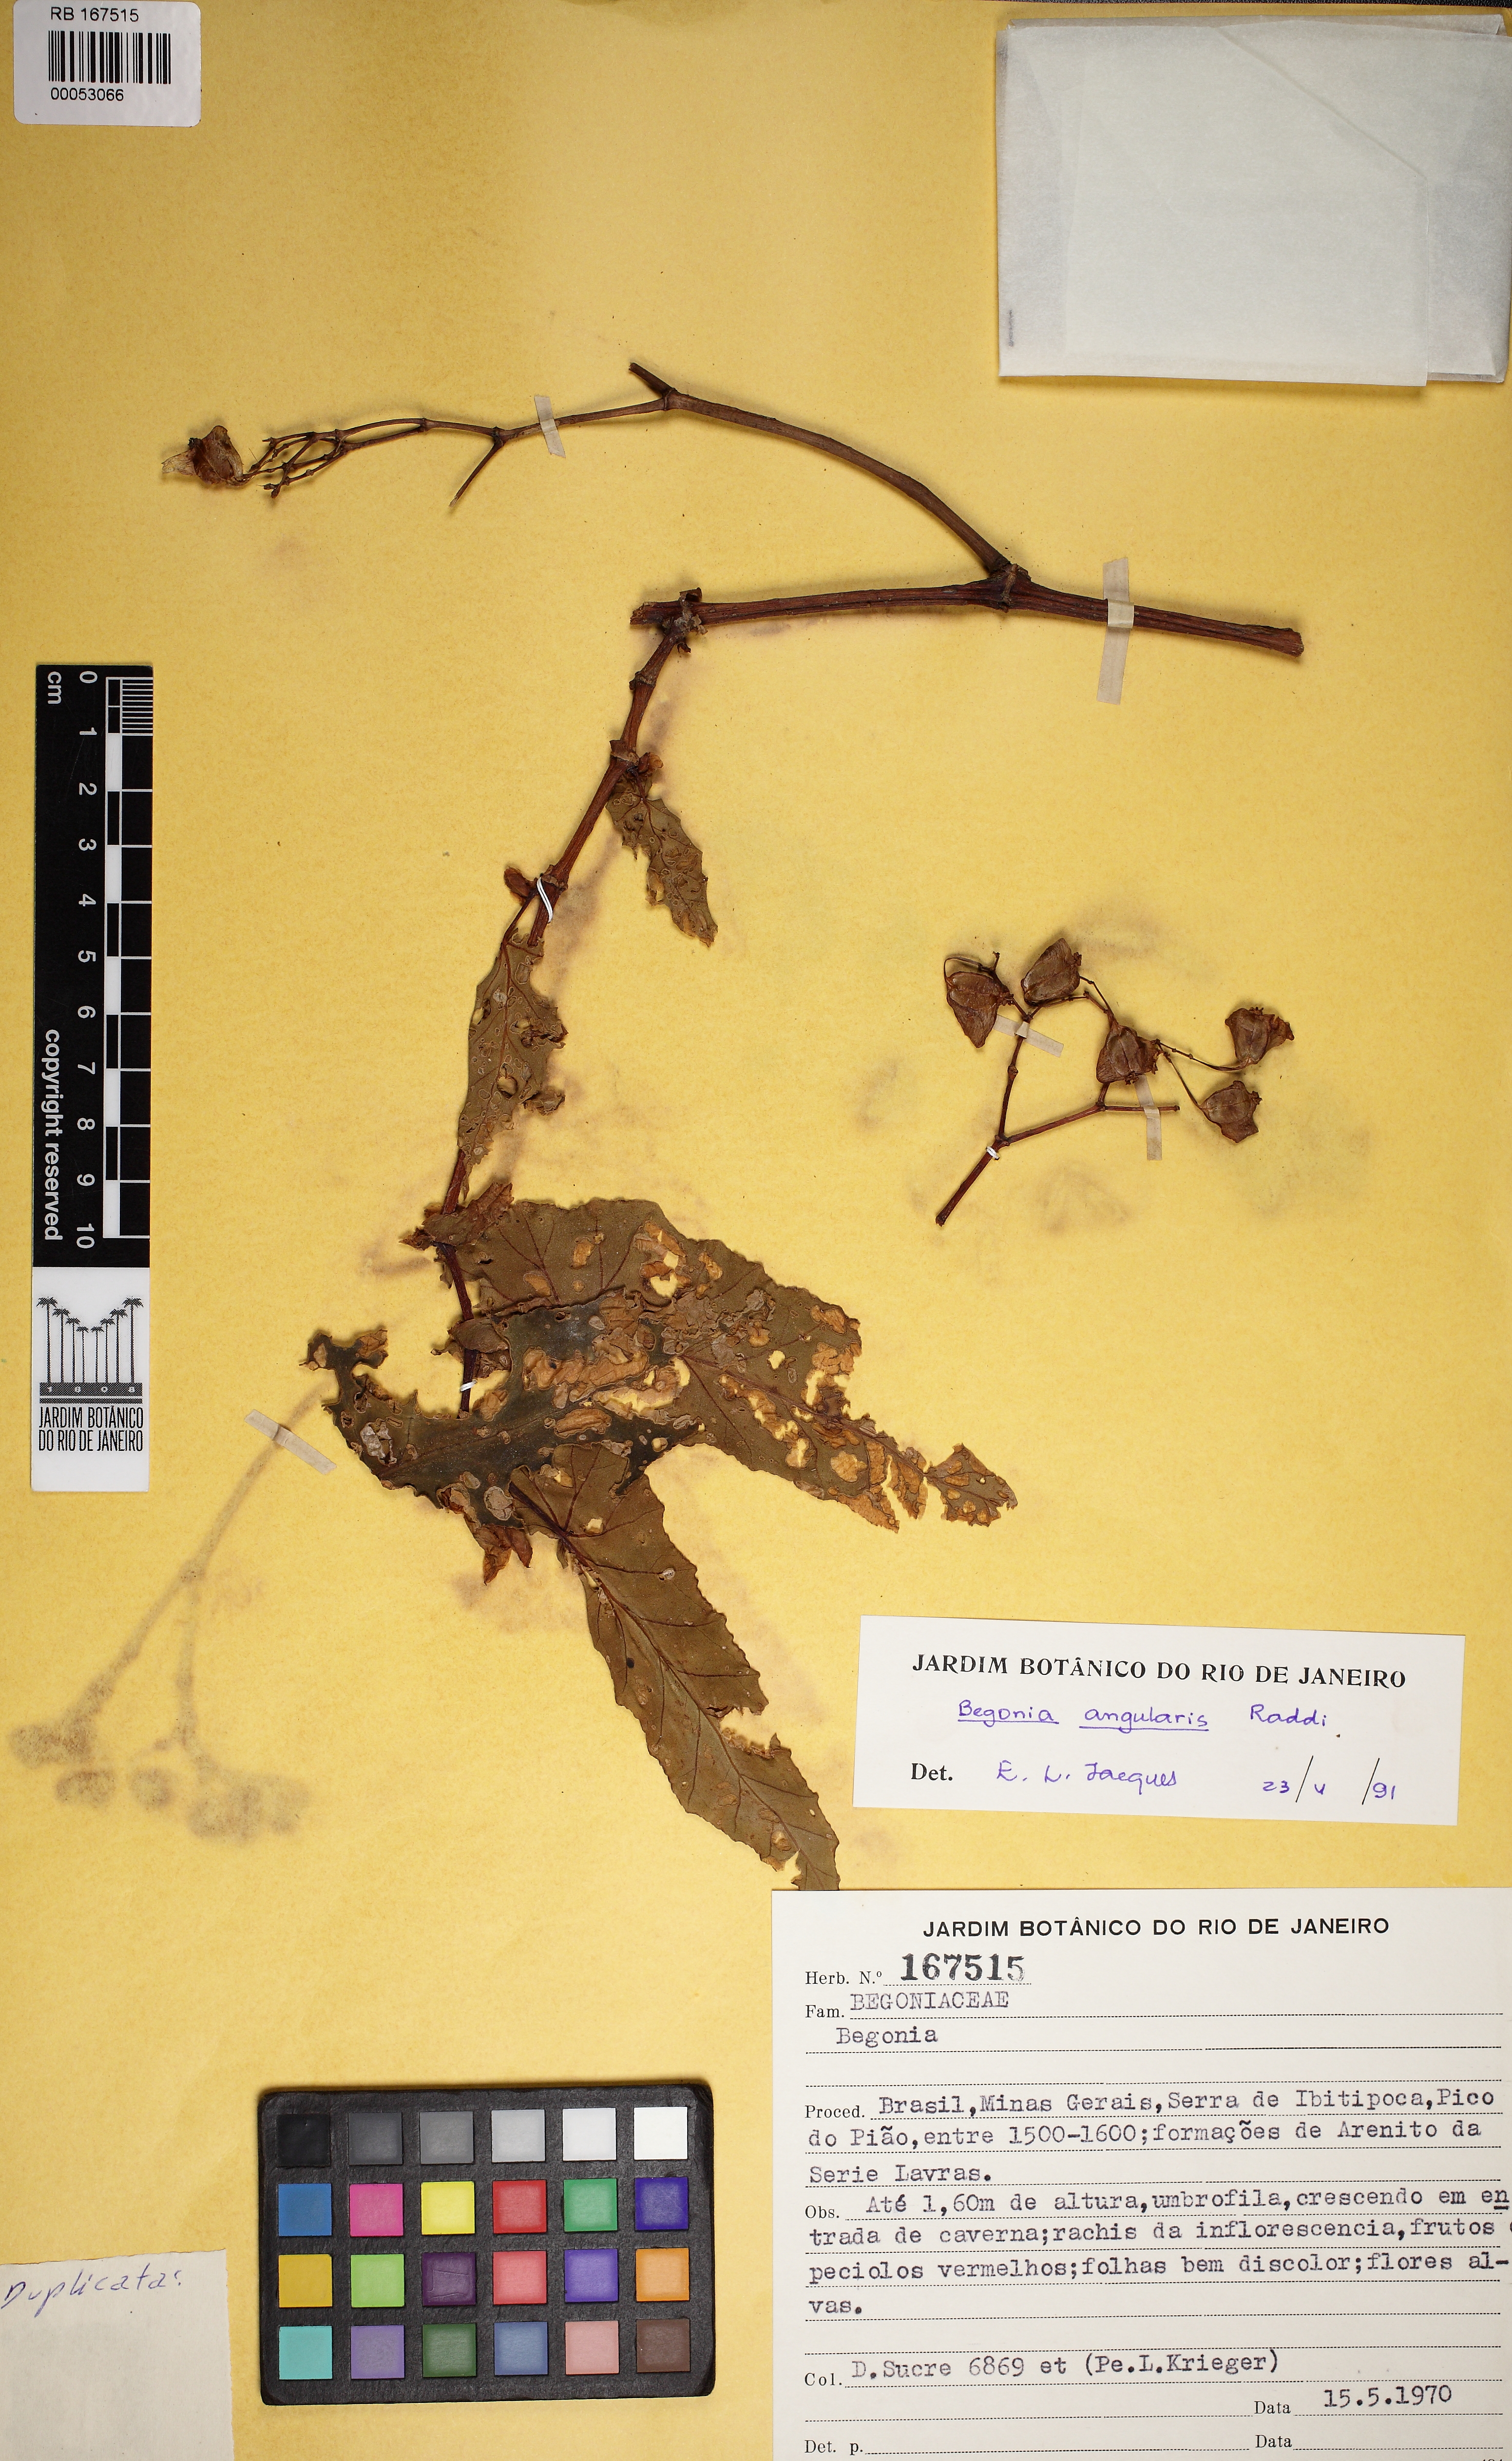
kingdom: Plantae
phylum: Tracheophyta
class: Magnoliopsida
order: Cucurbitales
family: Begoniaceae
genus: Begonia
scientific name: Begonia angularis
